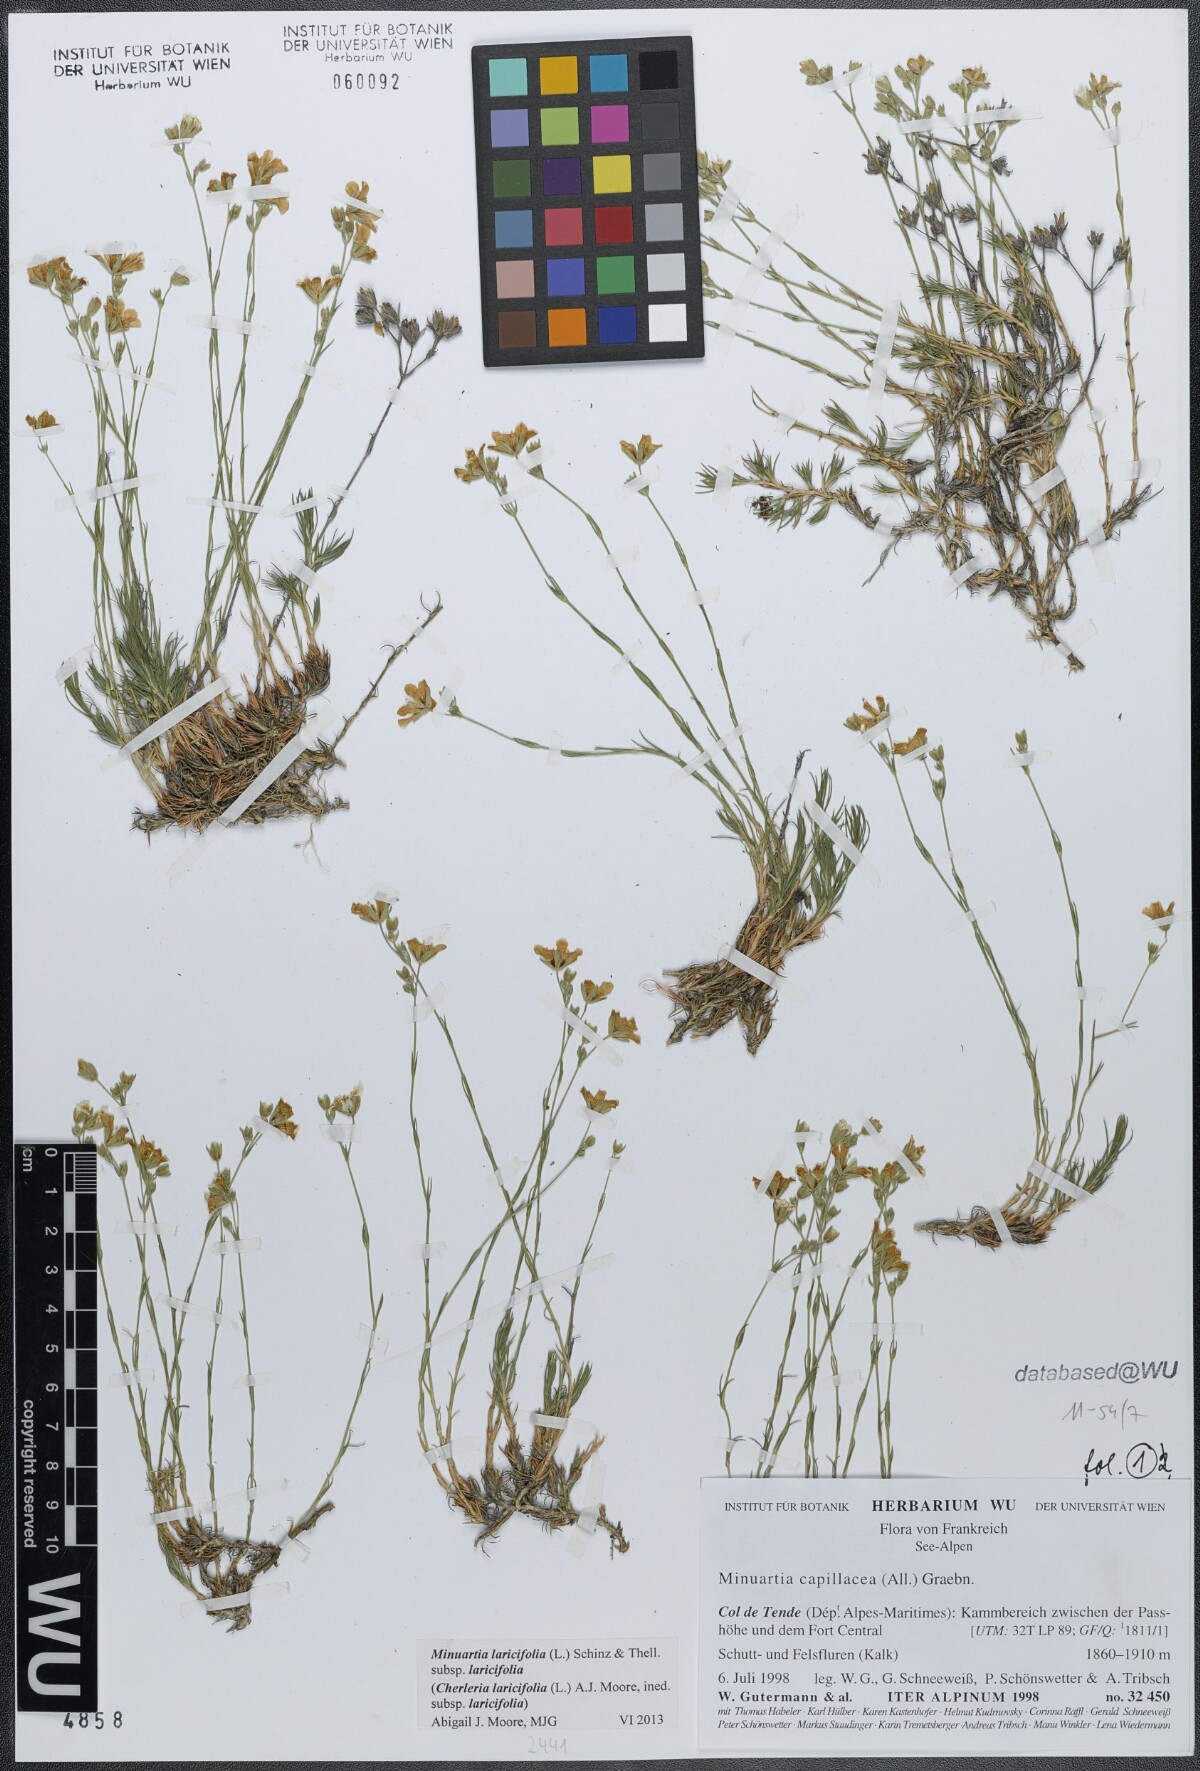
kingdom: Plantae
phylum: Tracheophyta
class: Magnoliopsida
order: Caryophyllales
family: Caryophyllaceae
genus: Cherleria
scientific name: Cherleria laricifolia
